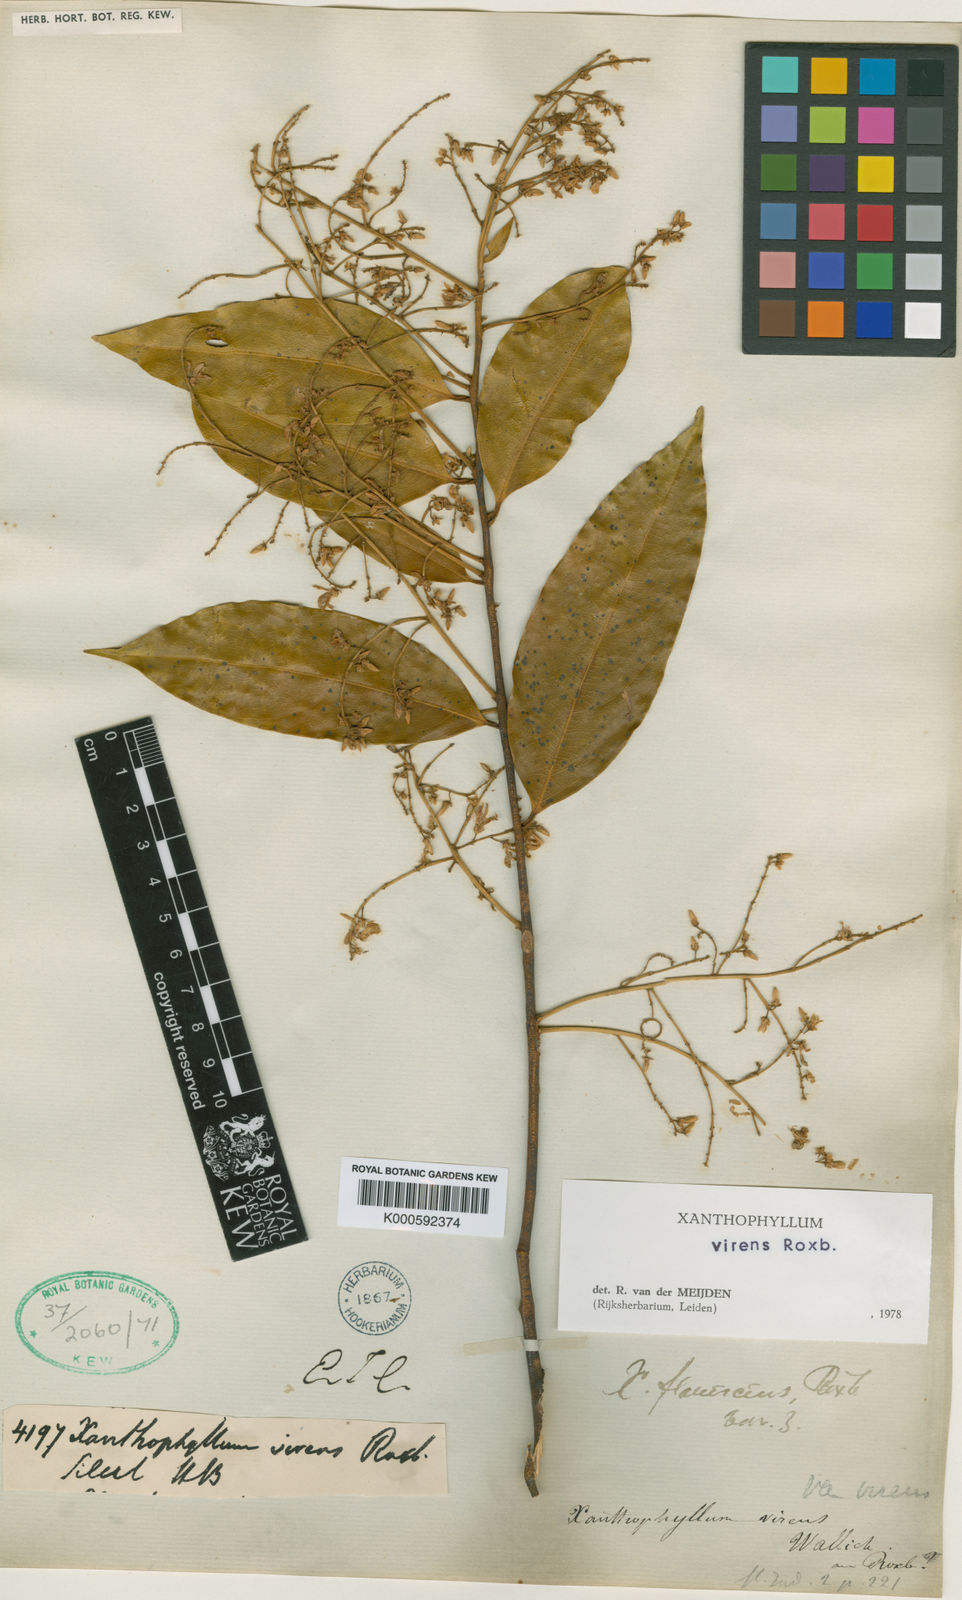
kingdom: Plantae
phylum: Tracheophyta
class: Magnoliopsida
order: Fabales
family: Polygalaceae
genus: Xanthophyllum
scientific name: Xanthophyllum andamanicum
